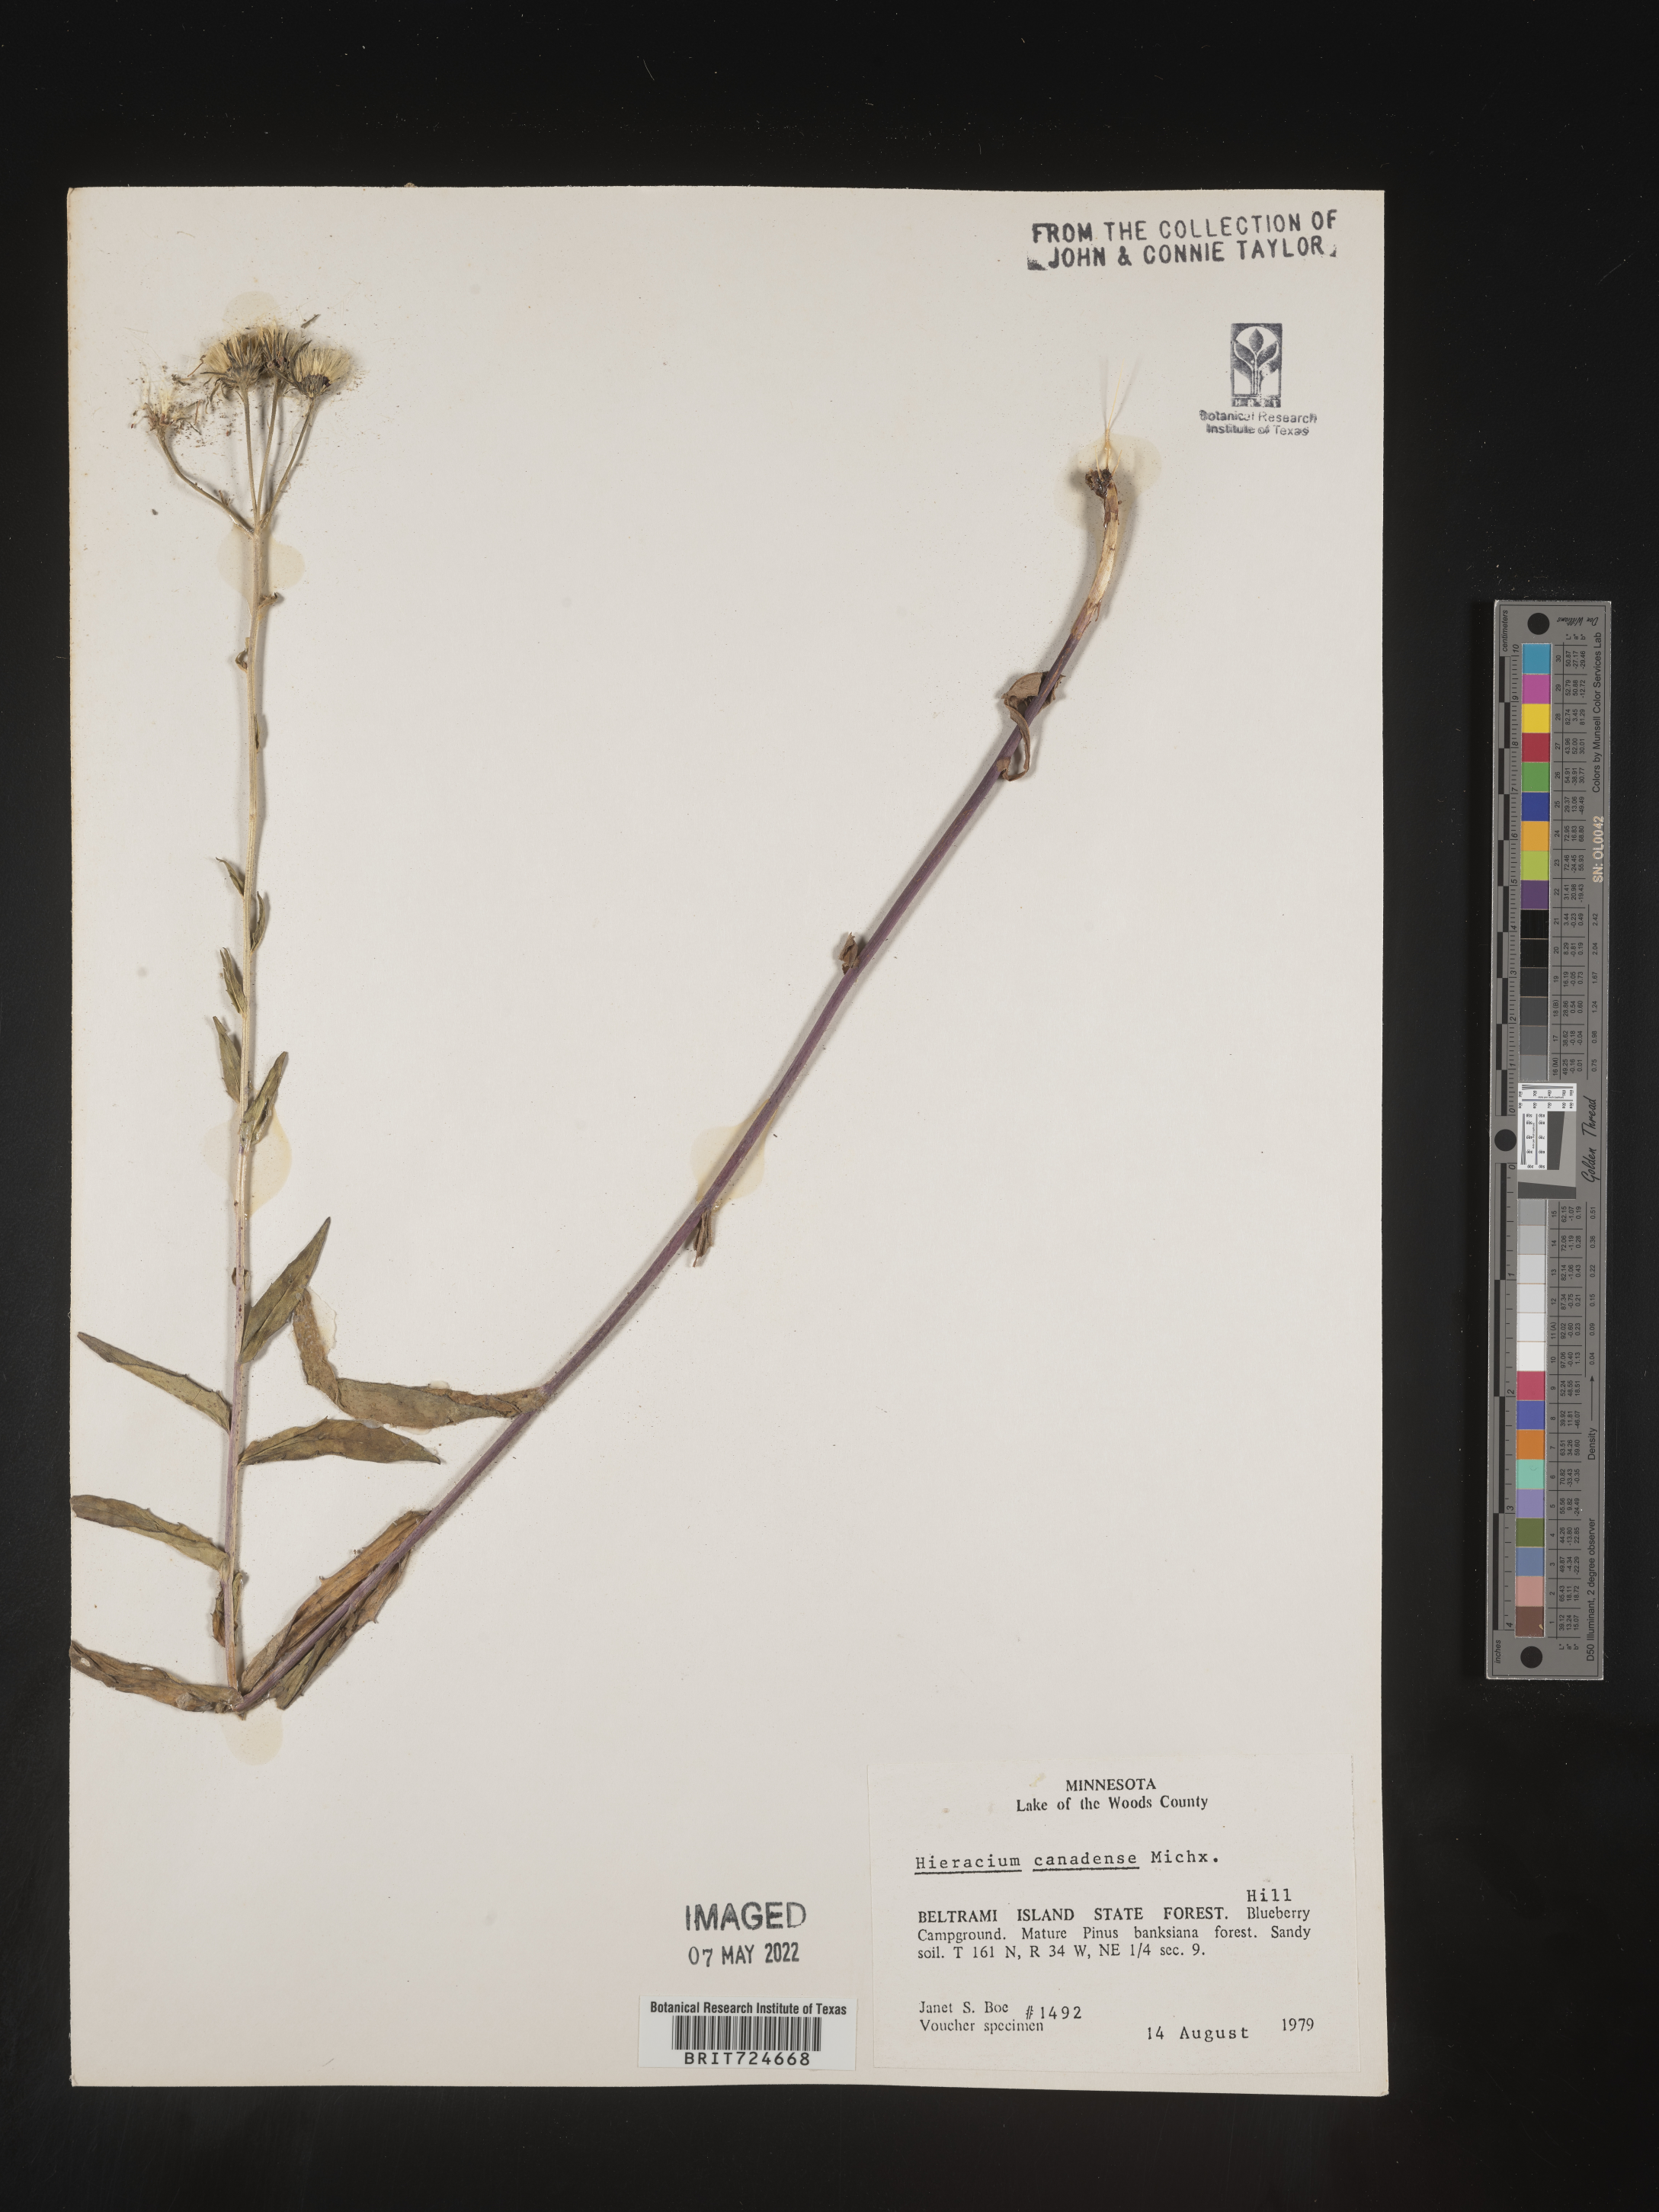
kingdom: Plantae
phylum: Tracheophyta
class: Magnoliopsida
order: Asterales
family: Asteraceae
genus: Hieracium
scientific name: Hieracium
